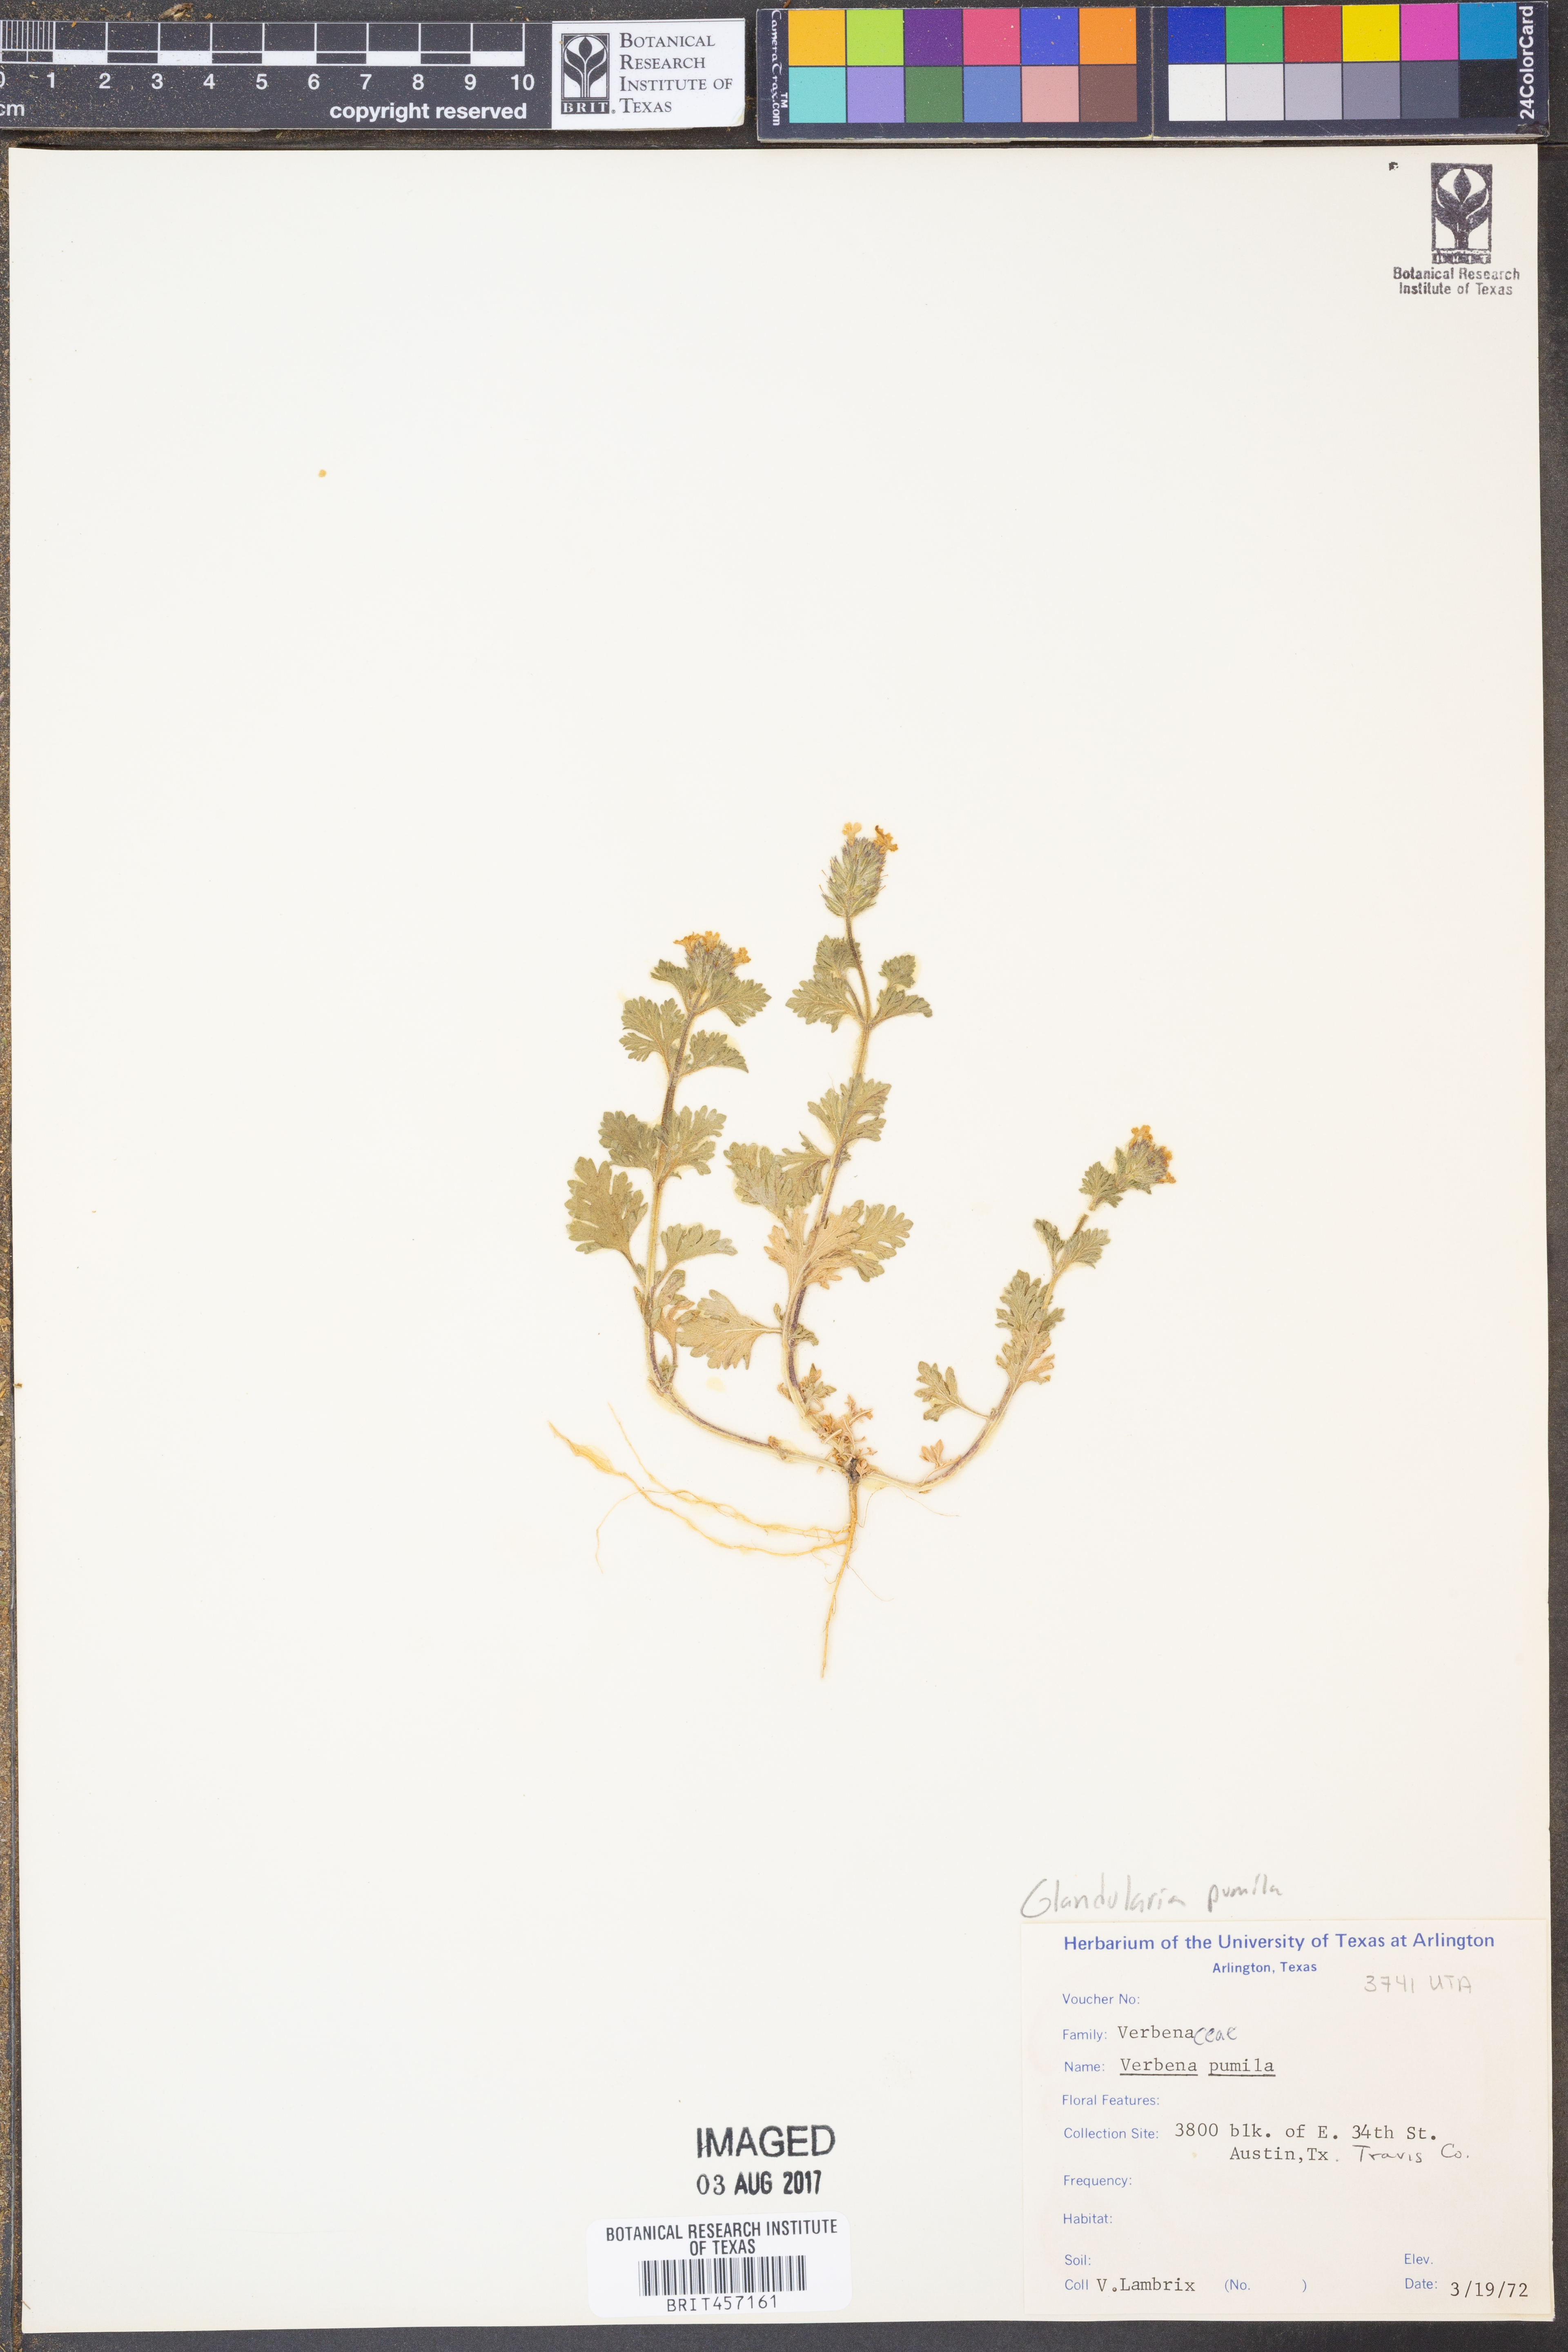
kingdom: Plantae
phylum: Tracheophyta
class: Magnoliopsida
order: Lamiales
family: Verbenaceae
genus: Verbena
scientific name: Verbena pumila
